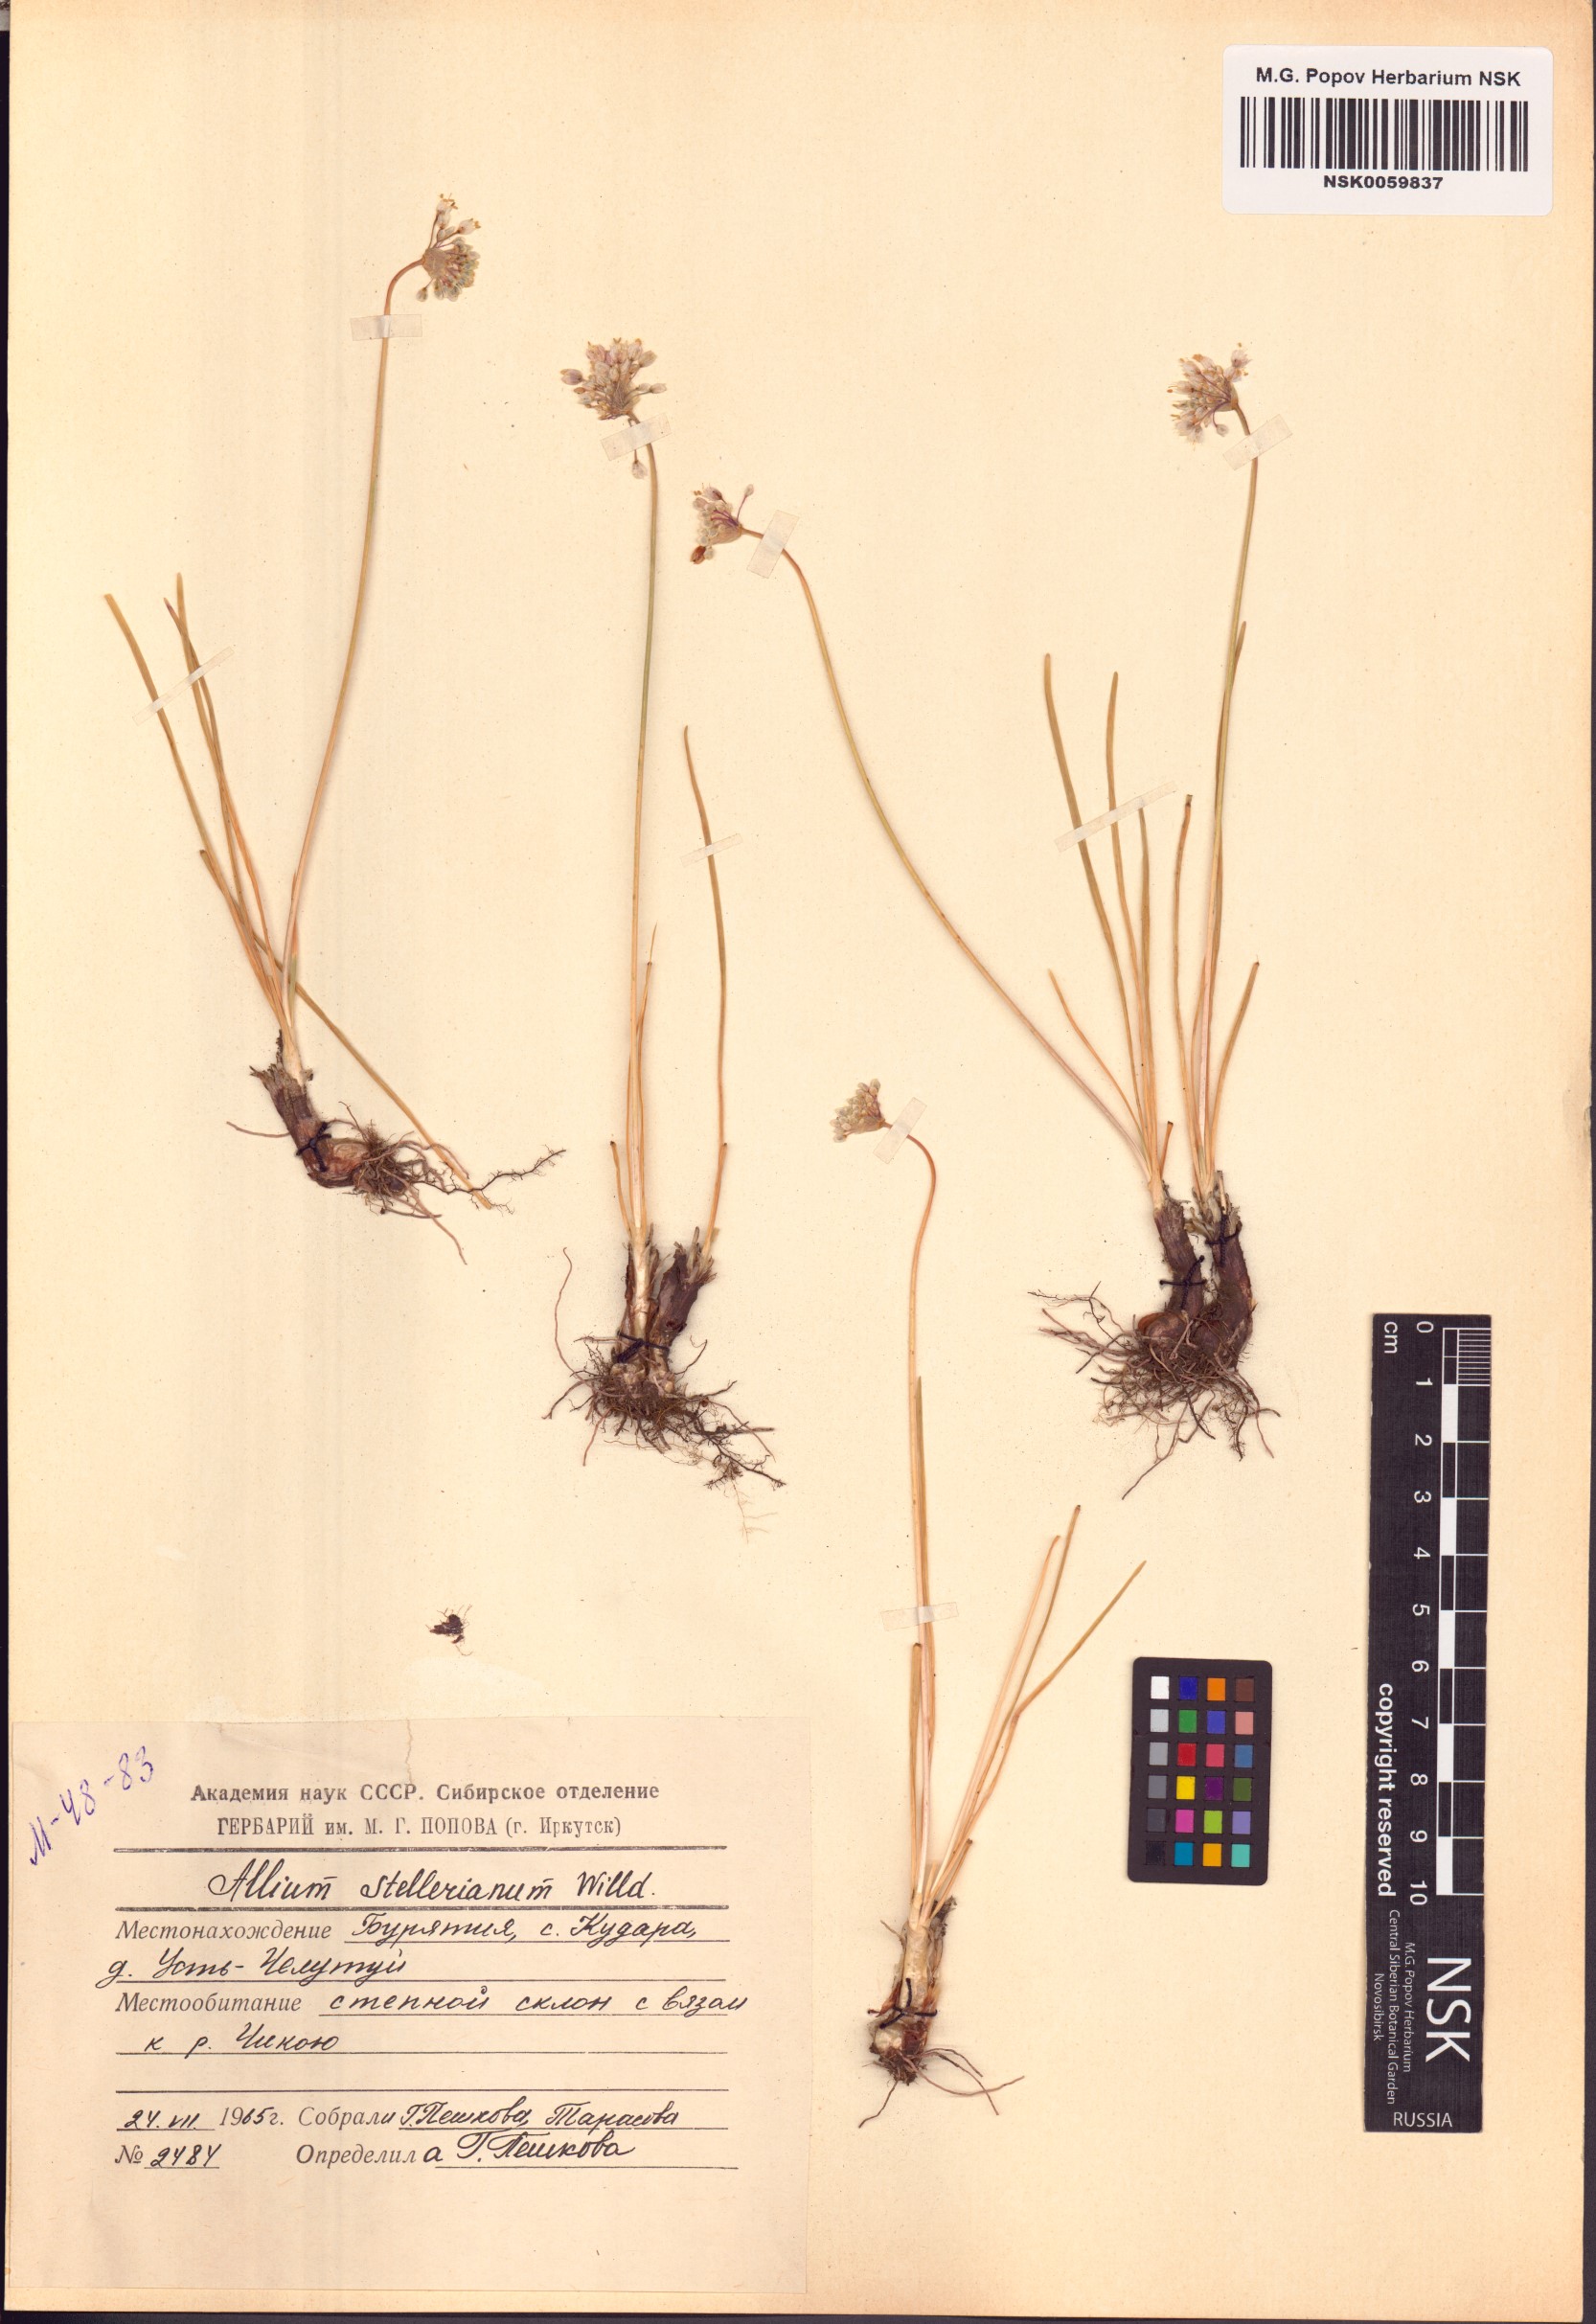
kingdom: Plantae
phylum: Tracheophyta
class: Liliopsida
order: Asparagales
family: Amaryllidaceae
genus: Allium
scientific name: Allium stellerianum
